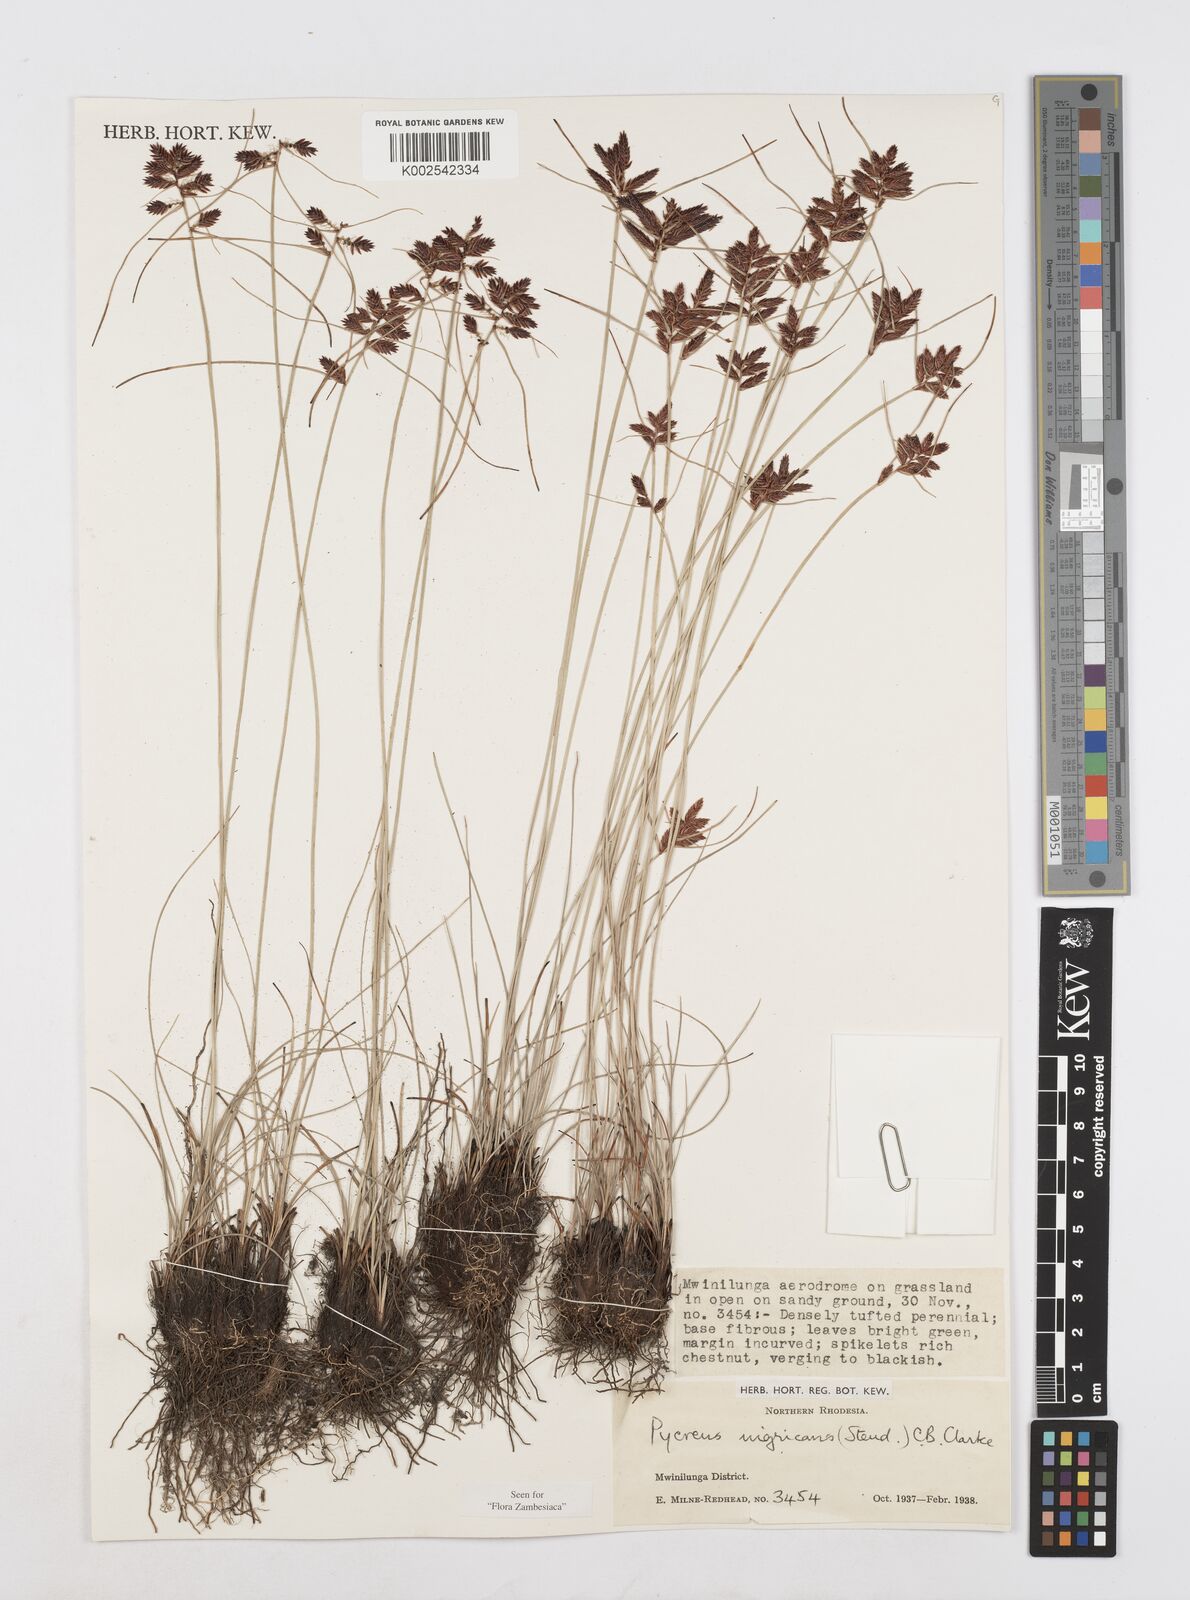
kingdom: Plantae
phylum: Tracheophyta
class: Liliopsida
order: Poales
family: Cyperaceae
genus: Cyperus
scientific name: Cyperus nigricans
